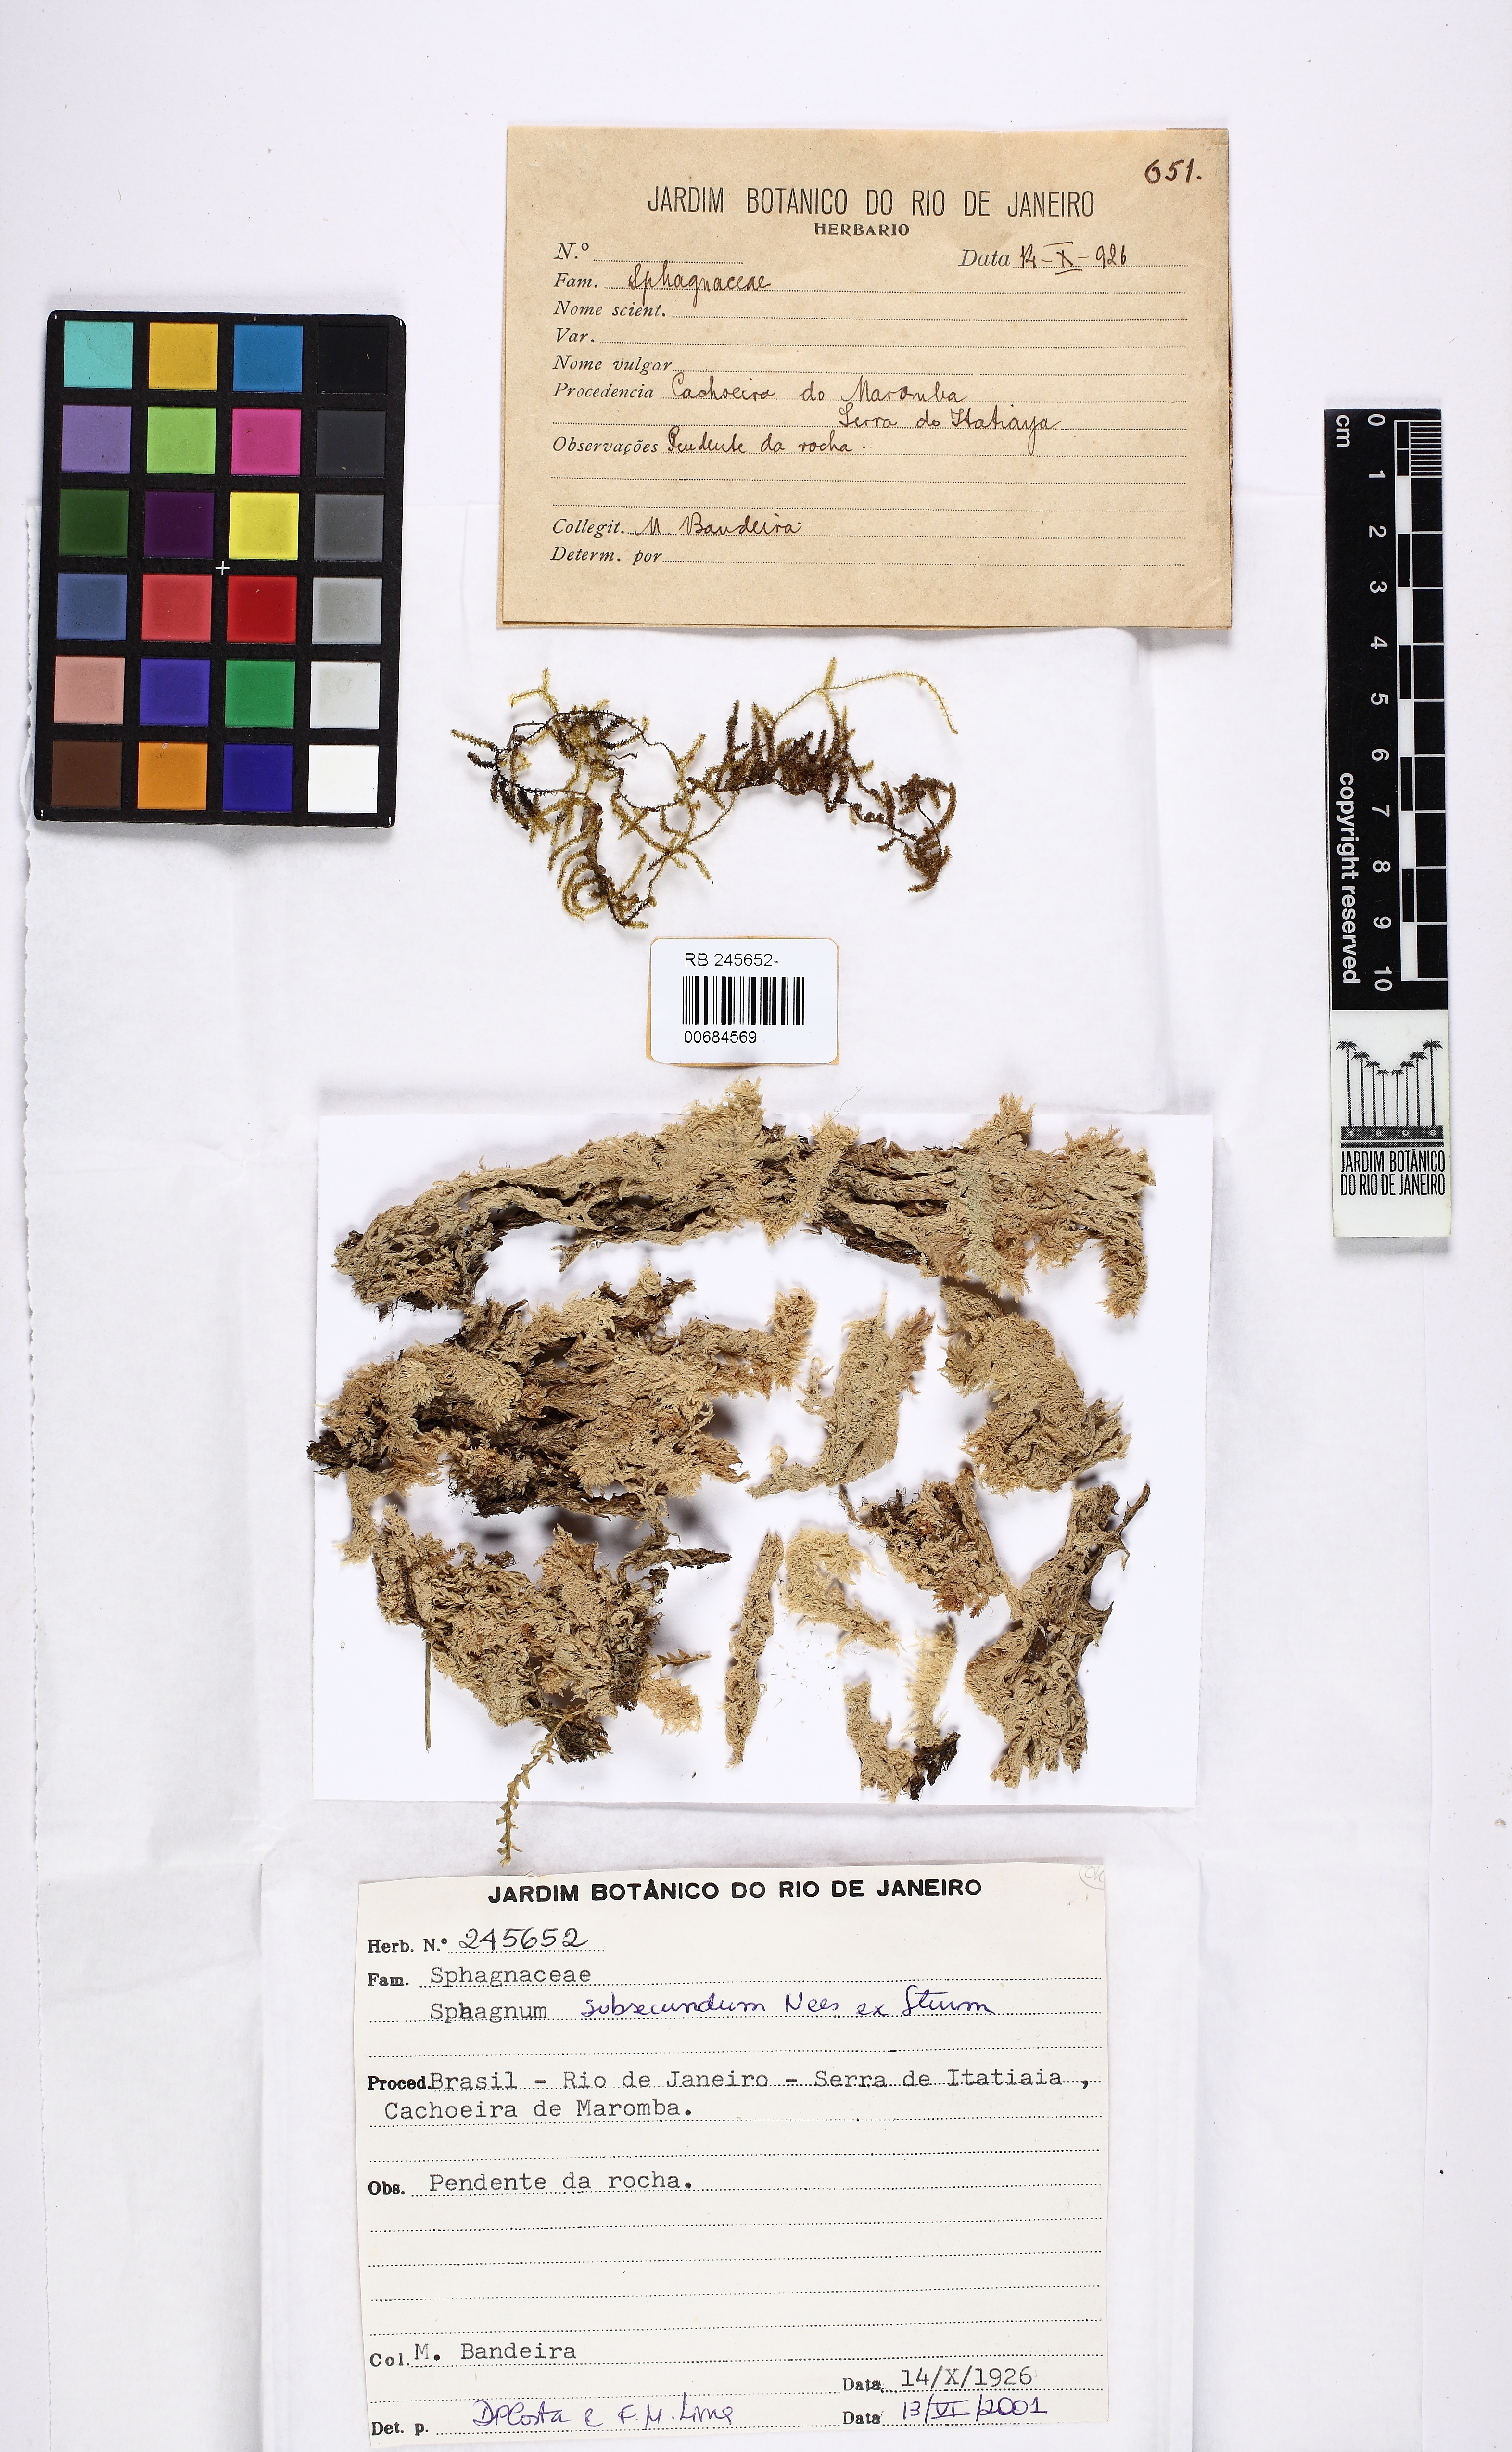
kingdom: Plantae
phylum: Bryophyta
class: Sphagnopsida
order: Sphagnales
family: Sphagnaceae
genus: Sphagnum
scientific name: Sphagnum subsecundum
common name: Orange peat moss
